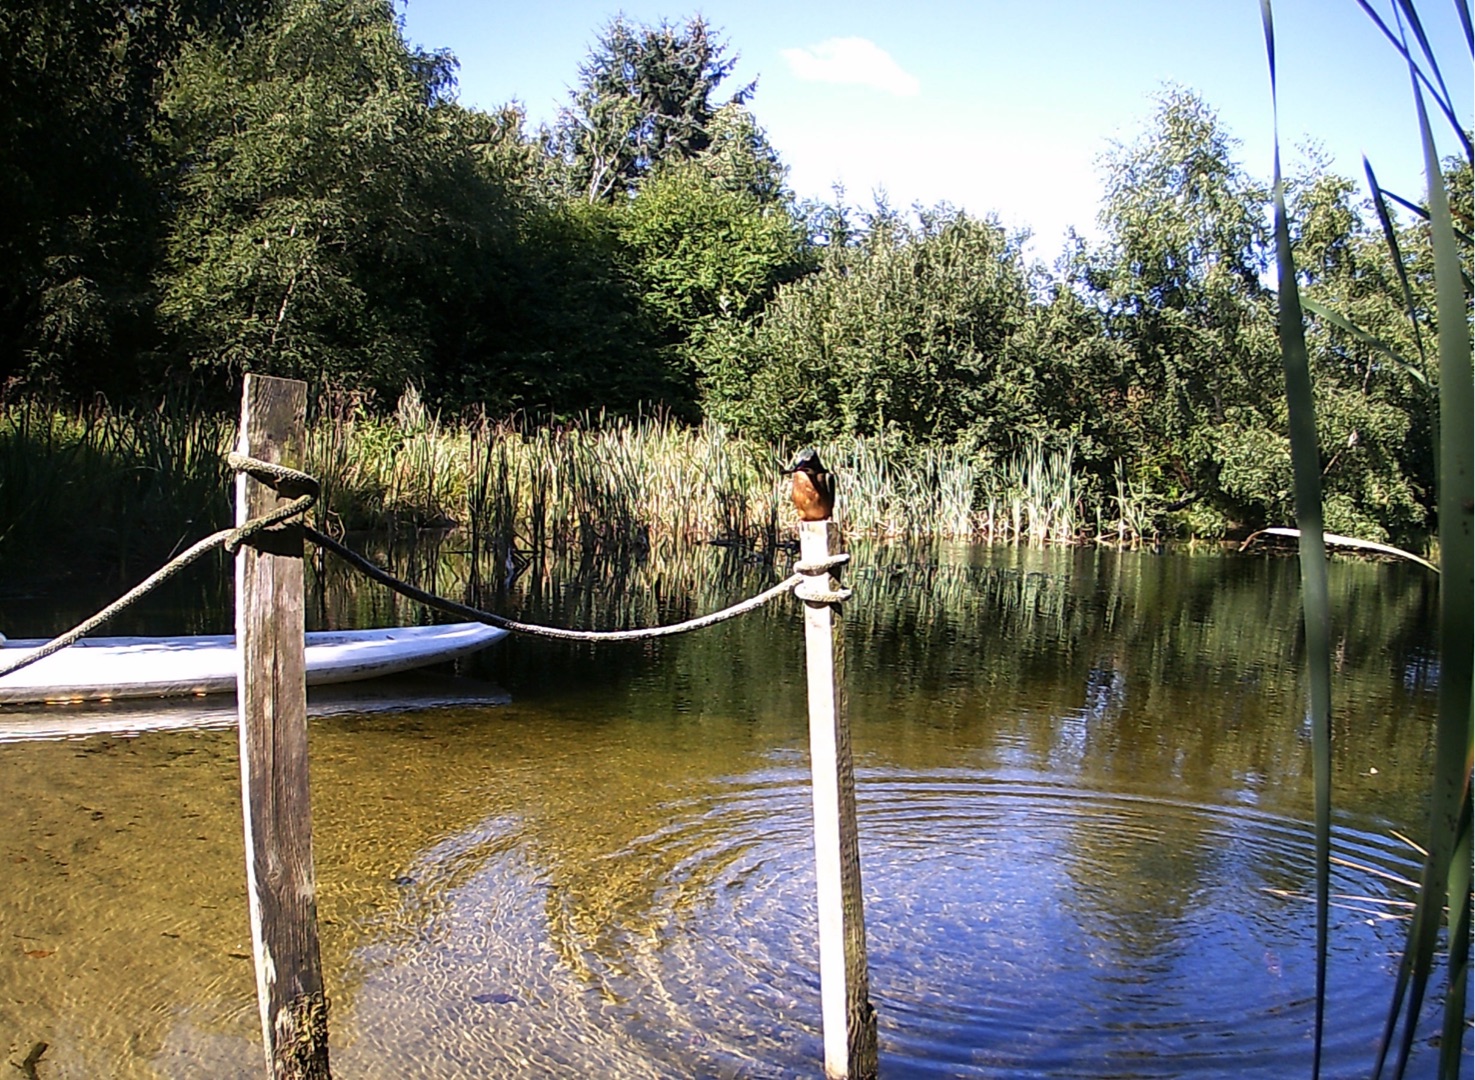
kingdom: Animalia
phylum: Chordata
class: Aves
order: Coraciiformes
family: Alcedinidae
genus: Alcedo
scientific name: Alcedo atthis
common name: Isfugl
